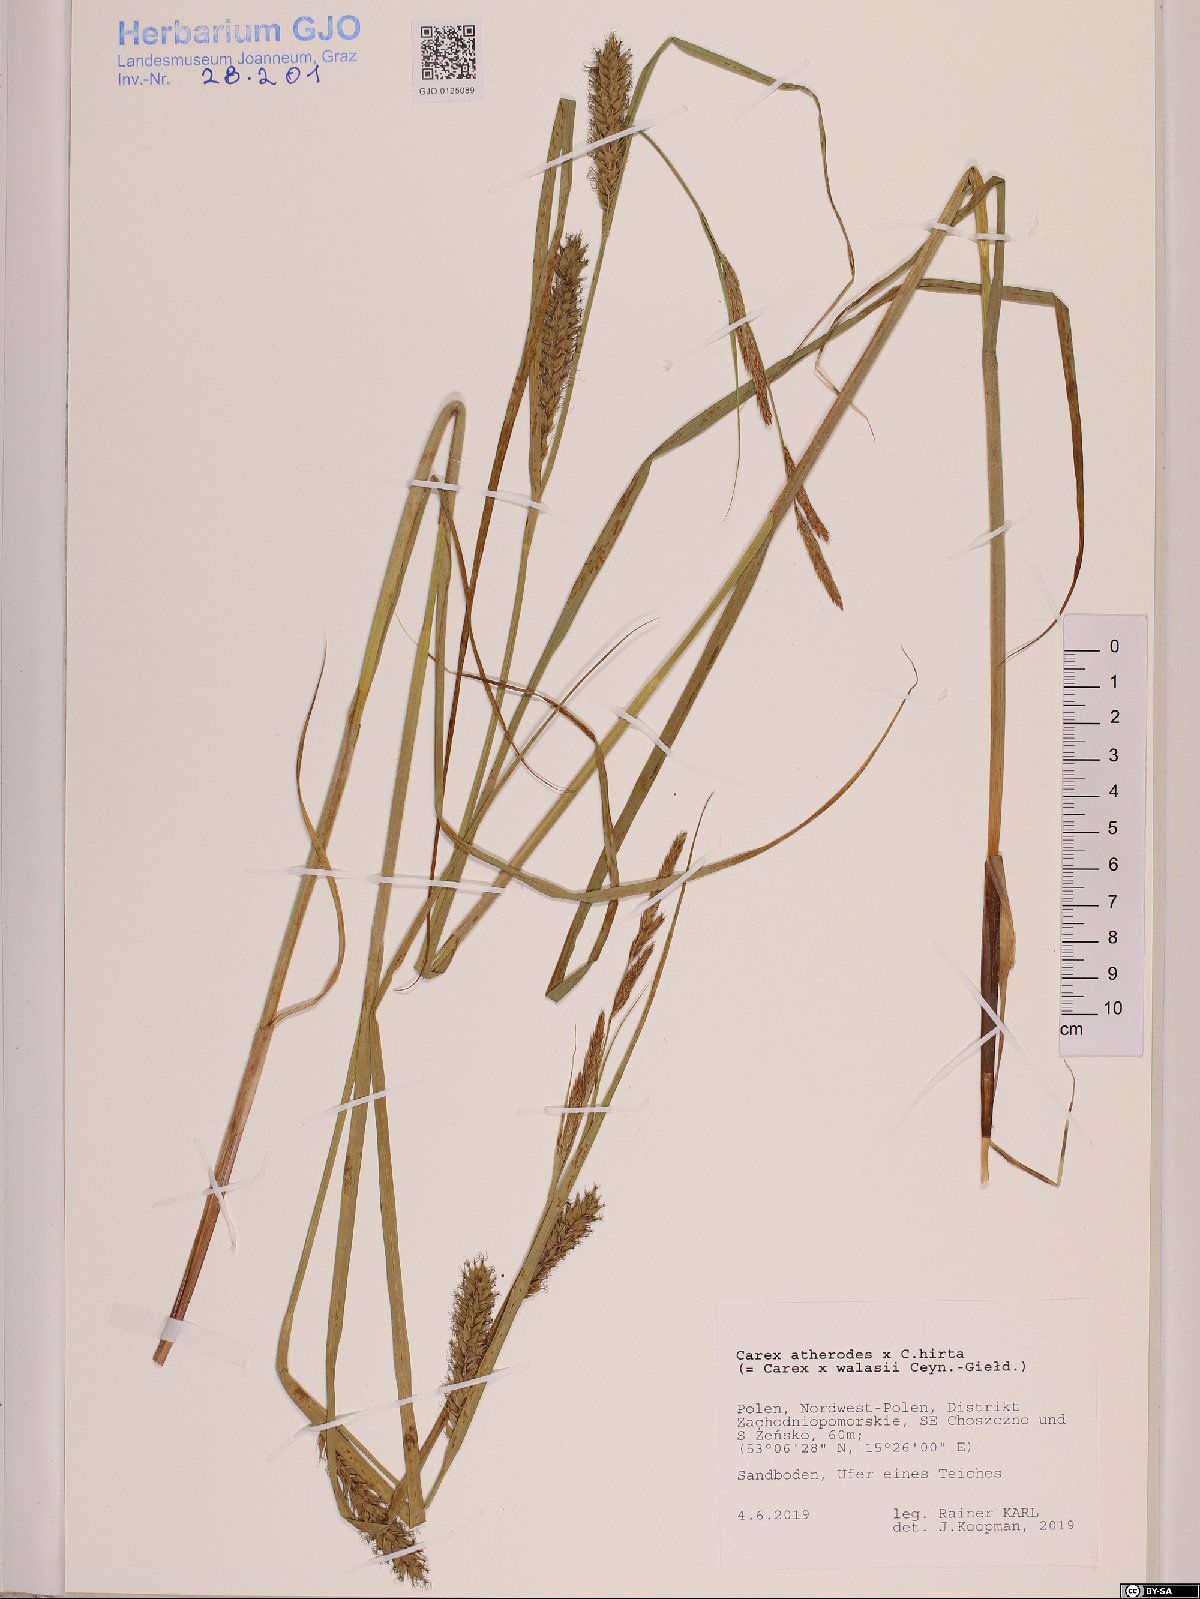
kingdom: Plantae
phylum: Tracheophyta
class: Liliopsida
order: Poales
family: Cyperaceae
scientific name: Cyperaceae
